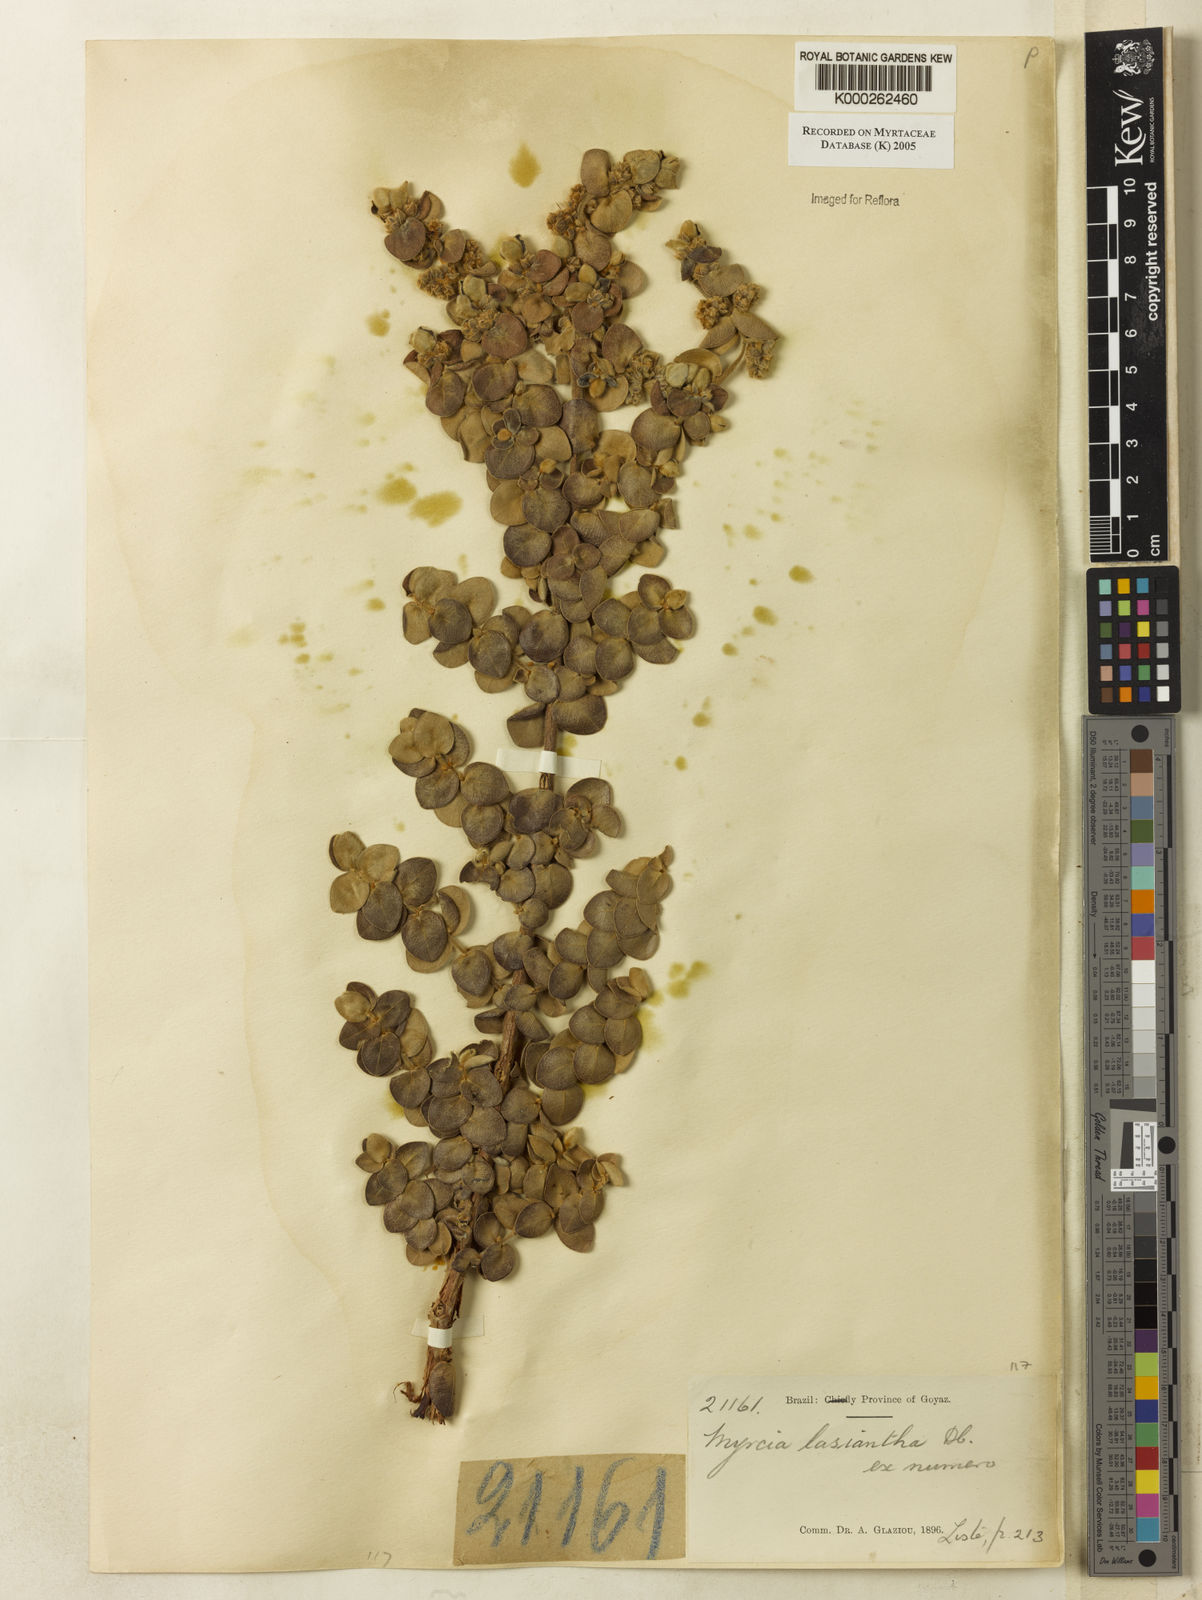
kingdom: Plantae
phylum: Tracheophyta
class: Magnoliopsida
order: Myrtales
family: Myrtaceae
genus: Myrcia
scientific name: Myrcia lasiantha
